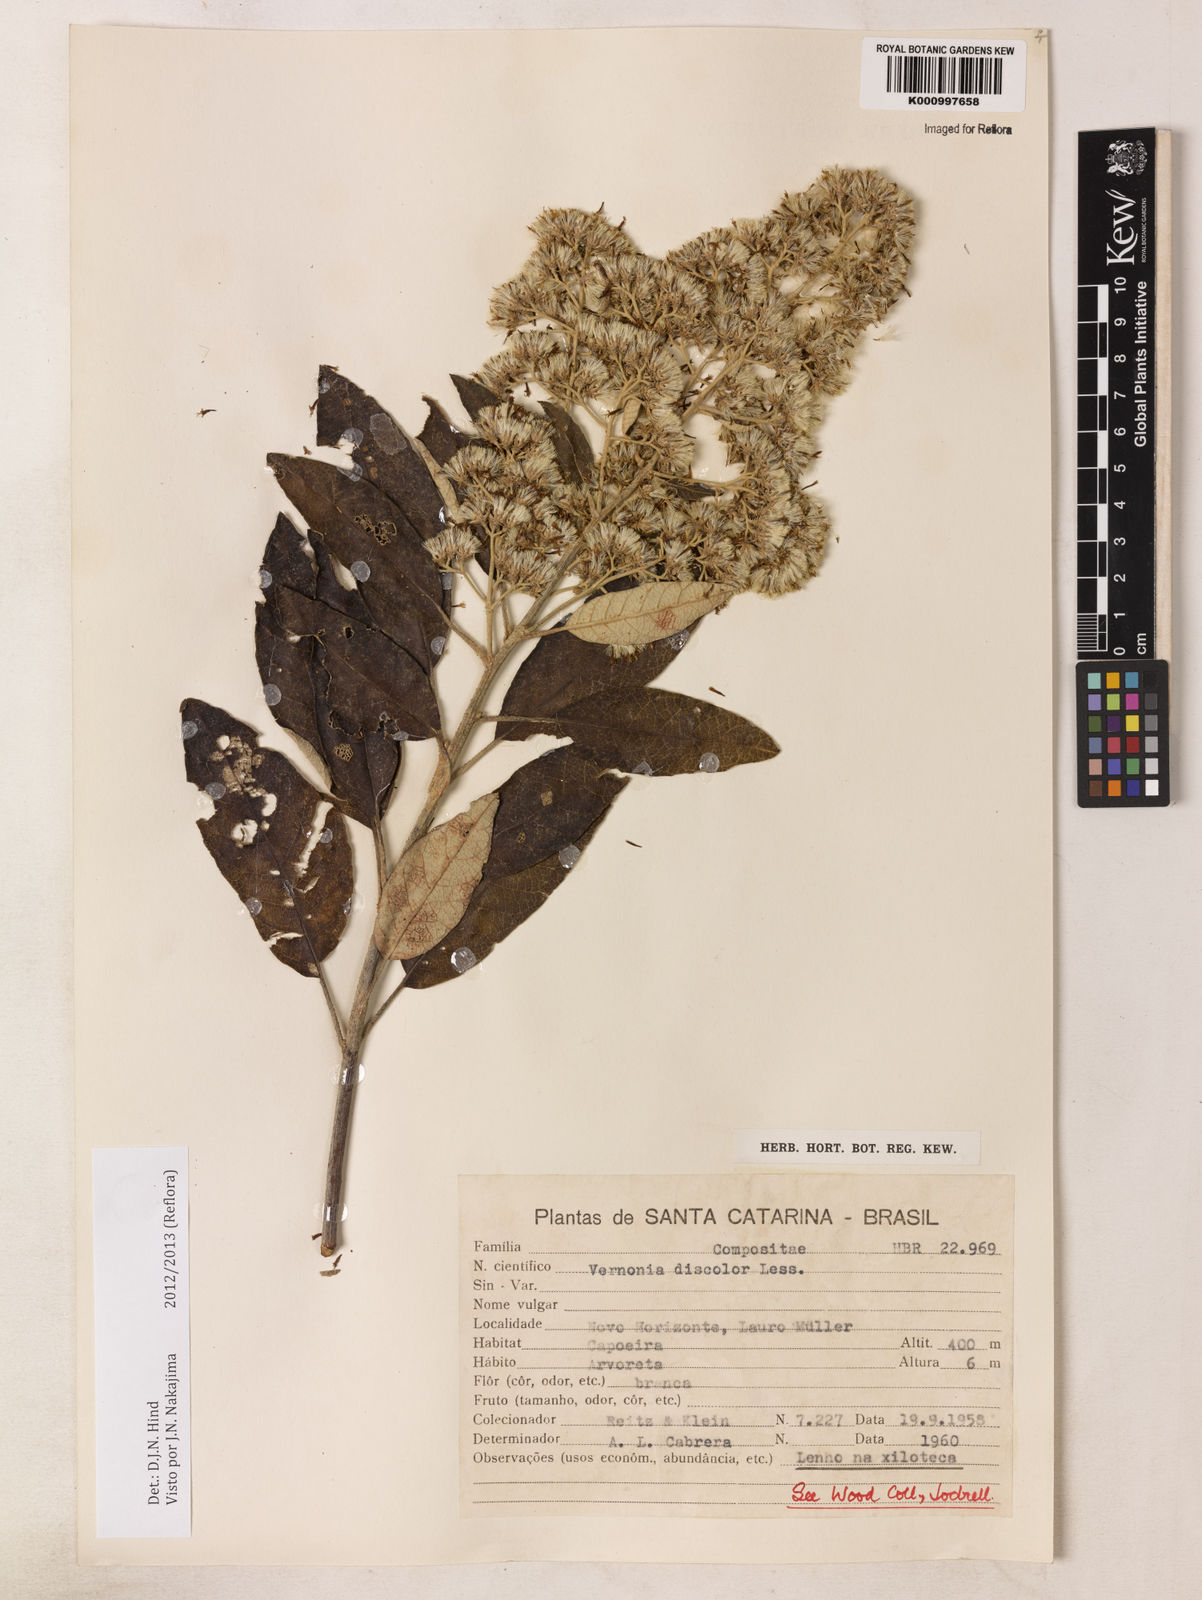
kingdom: Plantae
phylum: Tracheophyta
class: Magnoliopsida
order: Asterales
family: Asteraceae
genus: Vernonanthura
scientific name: Vernonanthura discolor
